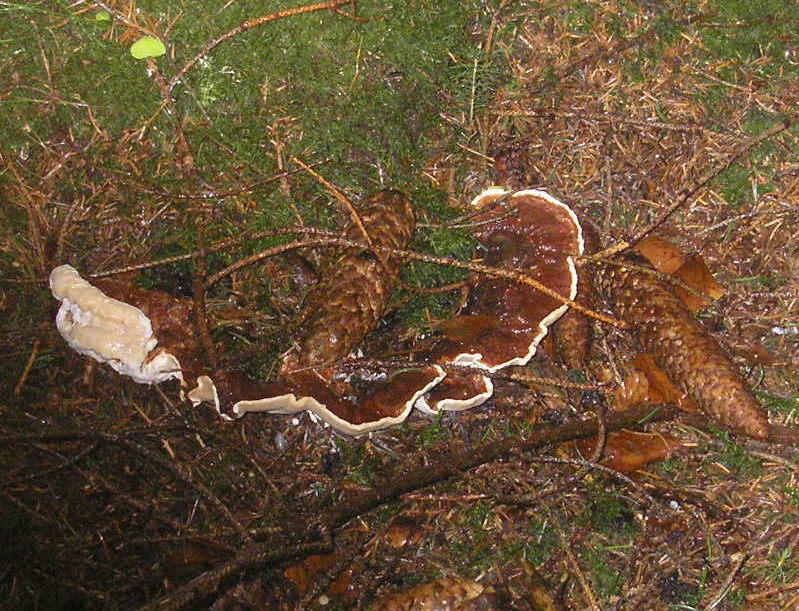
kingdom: Fungi
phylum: Basidiomycota
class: Agaricomycetes
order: Russulales
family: Bondarzewiaceae
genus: Heterobasidion
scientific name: Heterobasidion annosum
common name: almindelig rodfordærver
